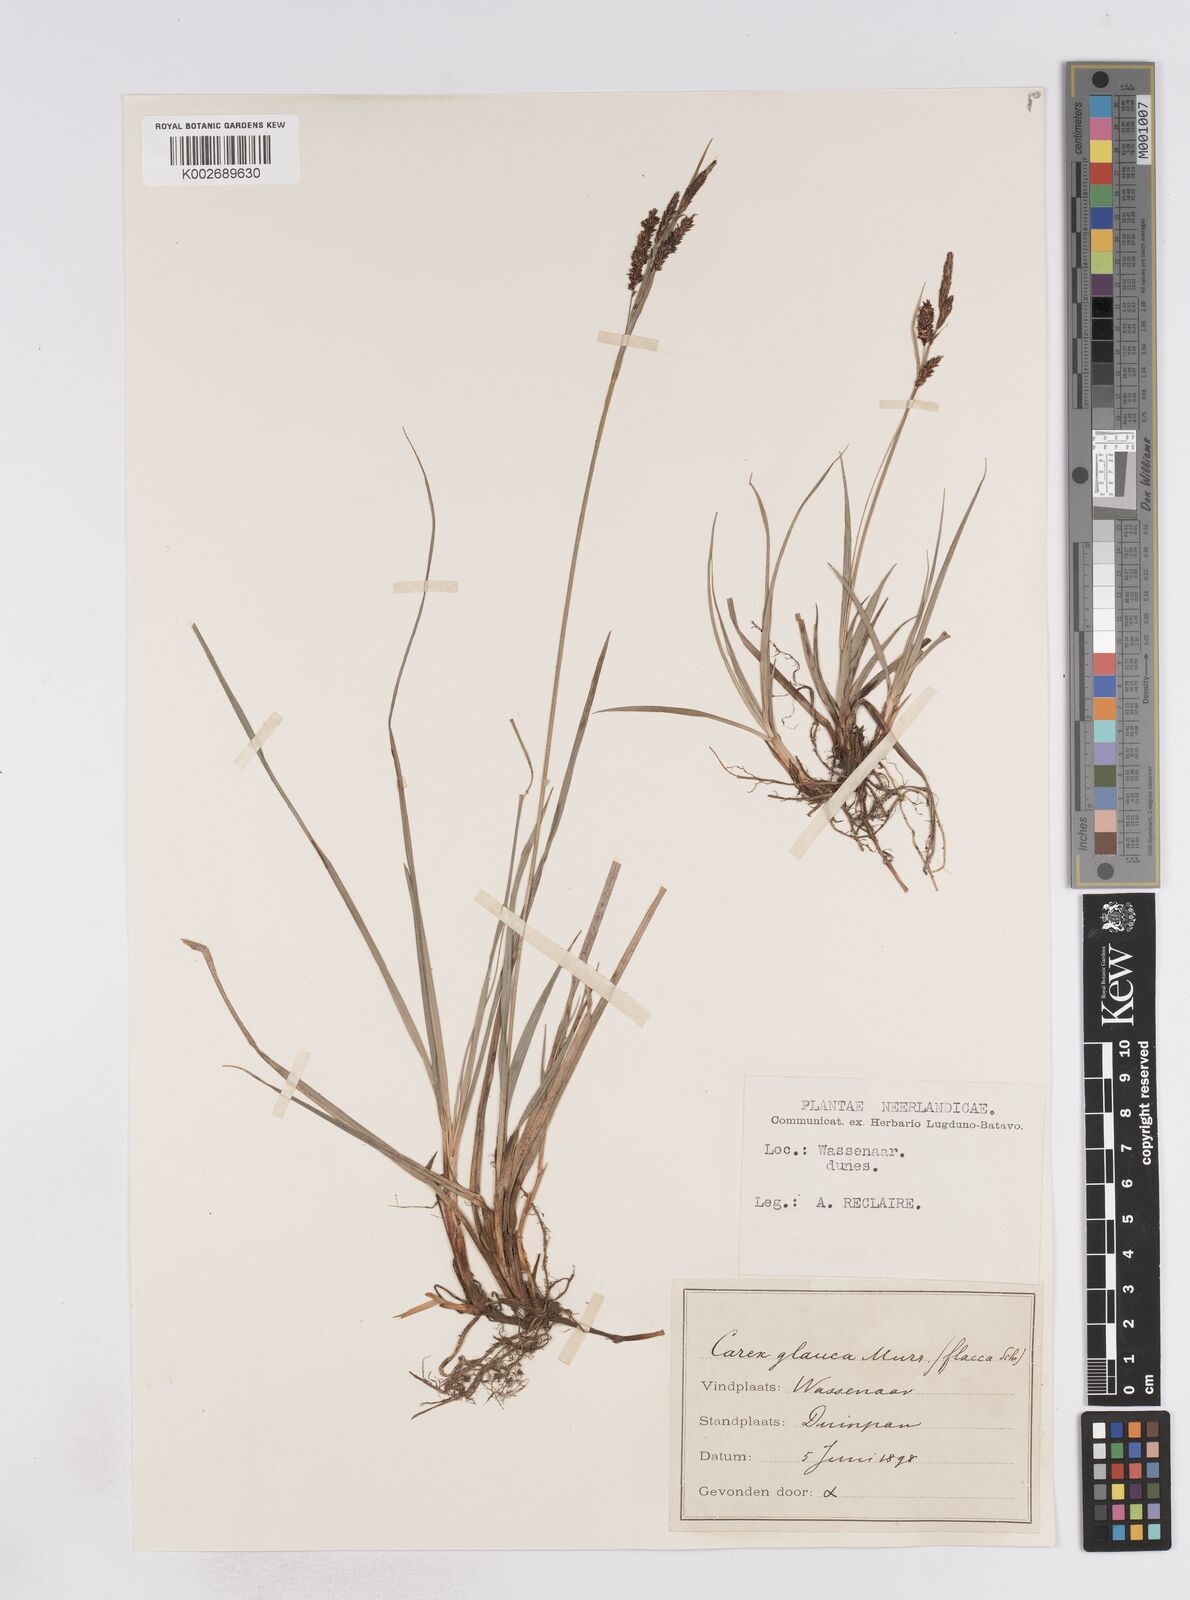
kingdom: Plantae
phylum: Tracheophyta
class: Liliopsida
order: Poales
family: Cyperaceae
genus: Carex
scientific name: Carex flacca
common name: Glaucous sedge
